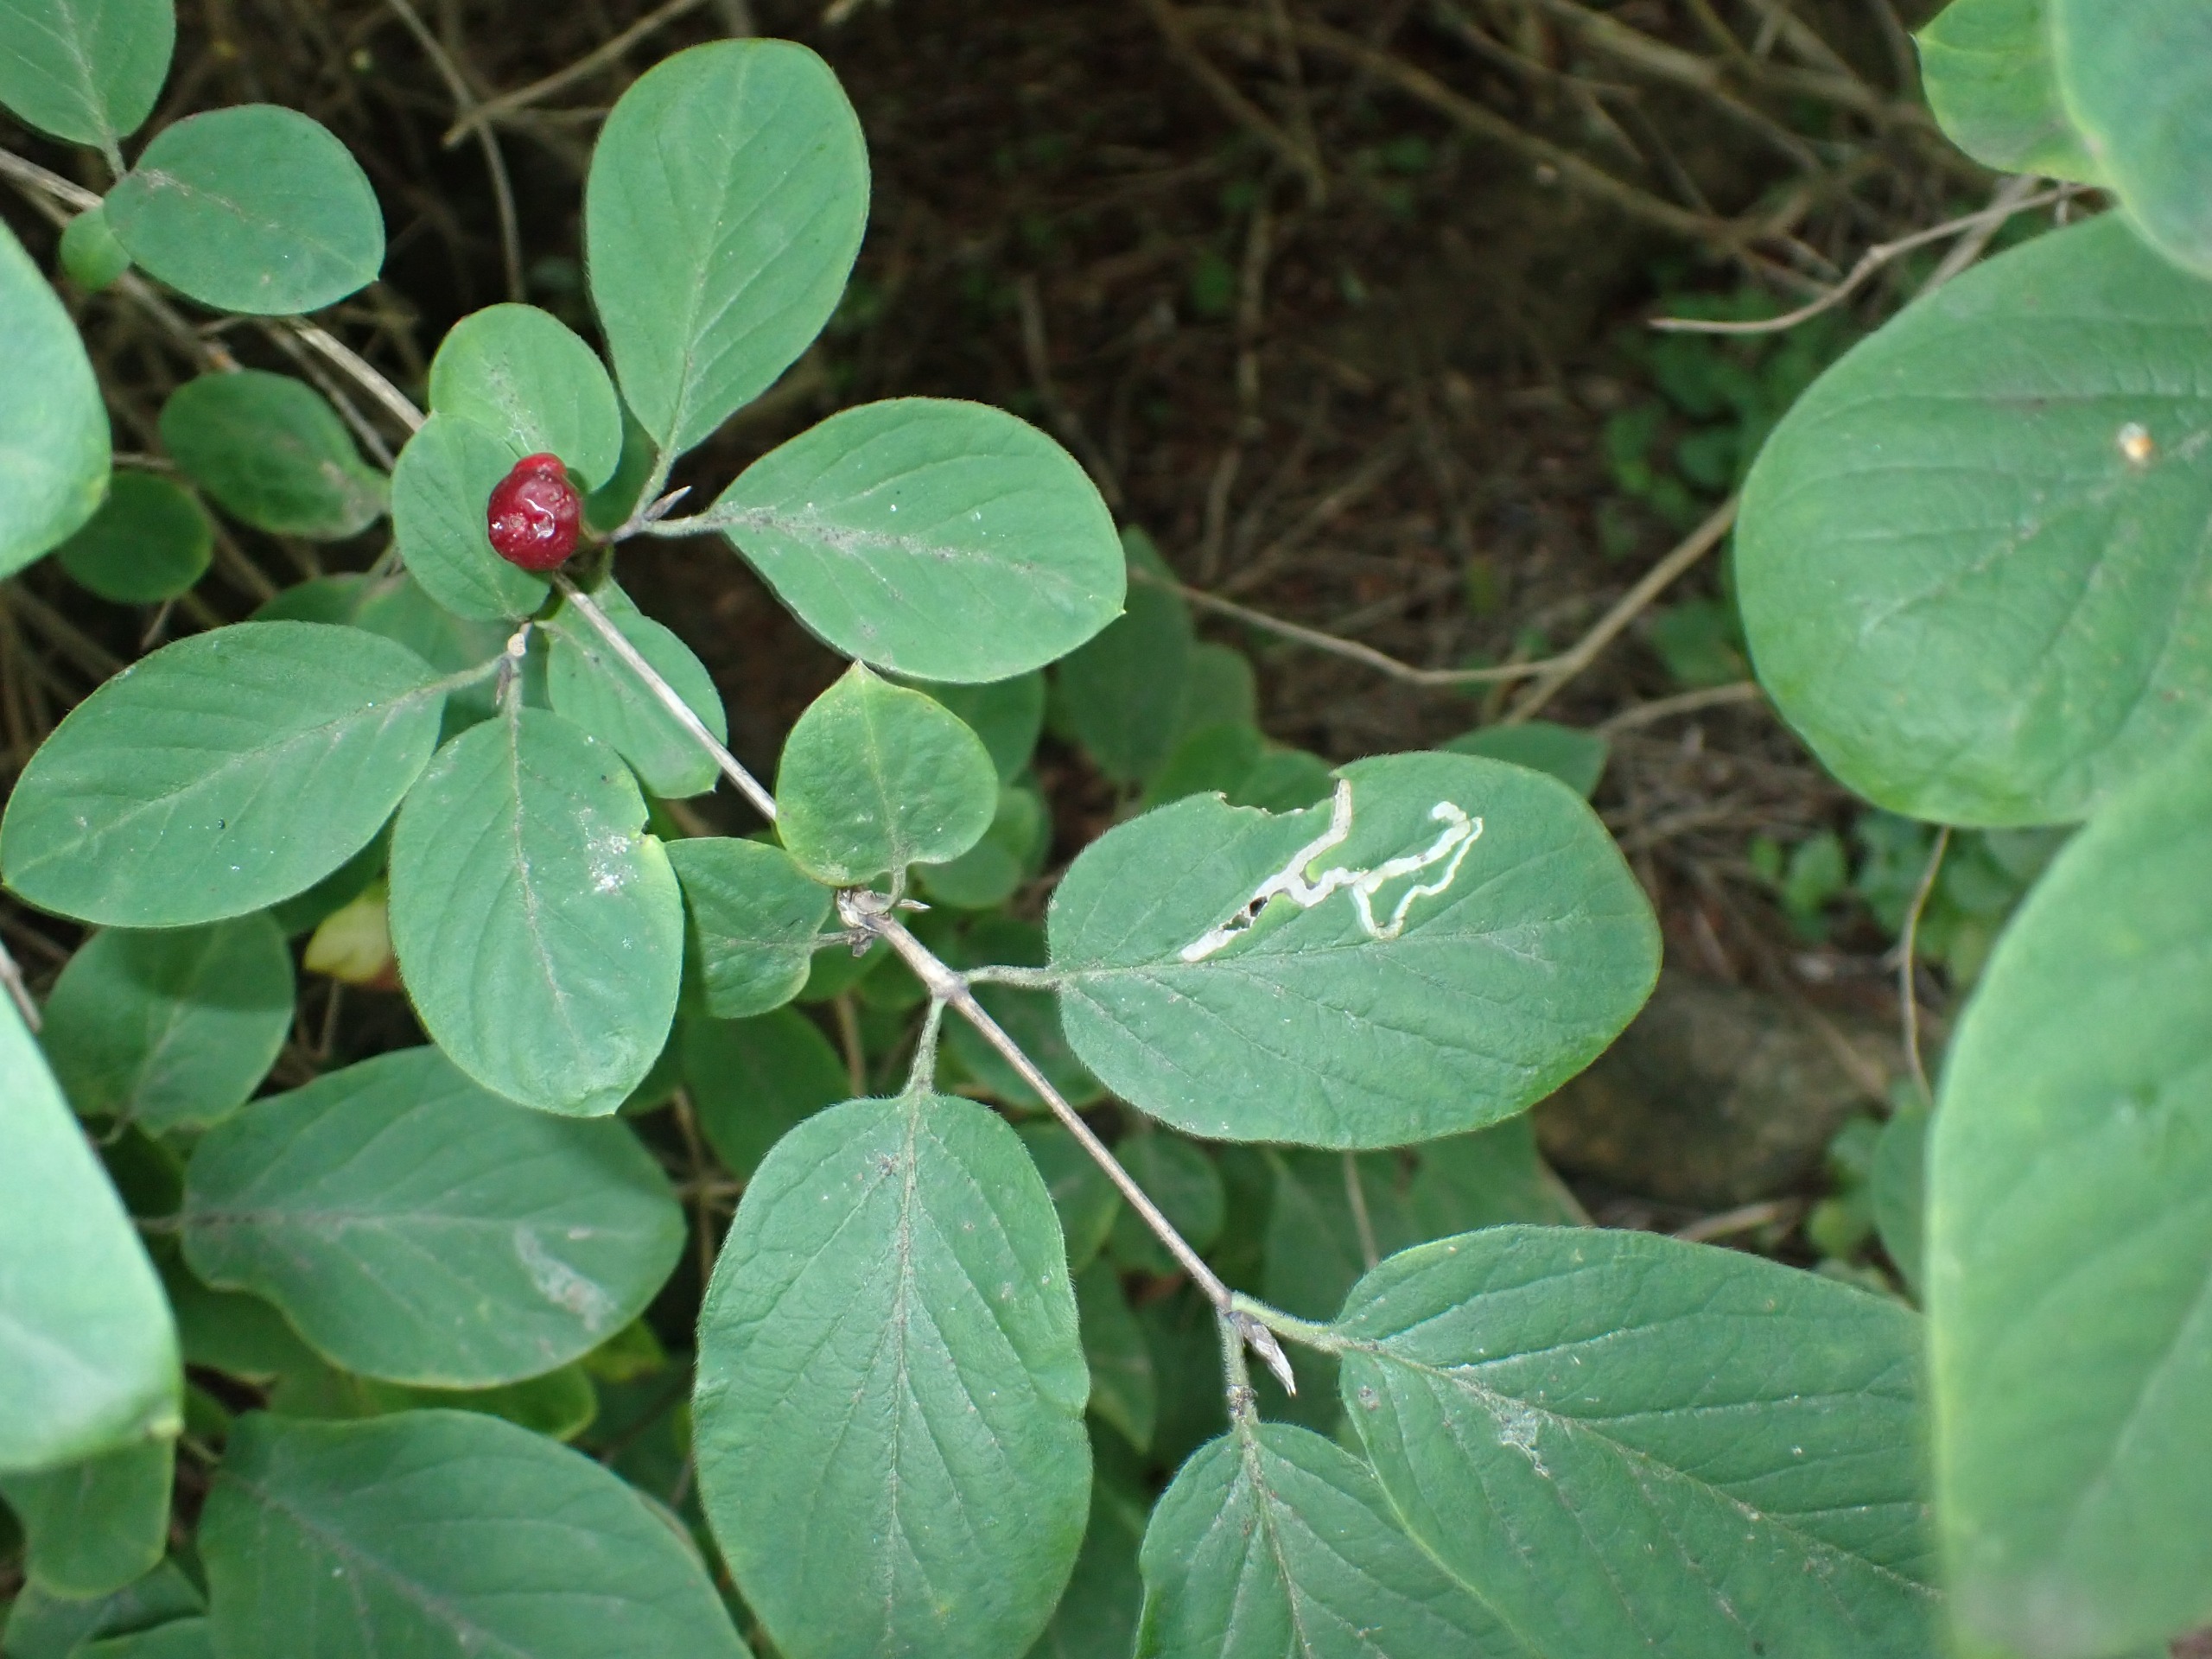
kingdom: Plantae
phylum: Tracheophyta
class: Magnoliopsida
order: Dipsacales
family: Caprifoliaceae
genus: Lonicera
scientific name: Lonicera xylosteum
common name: Dunet gedeblad
